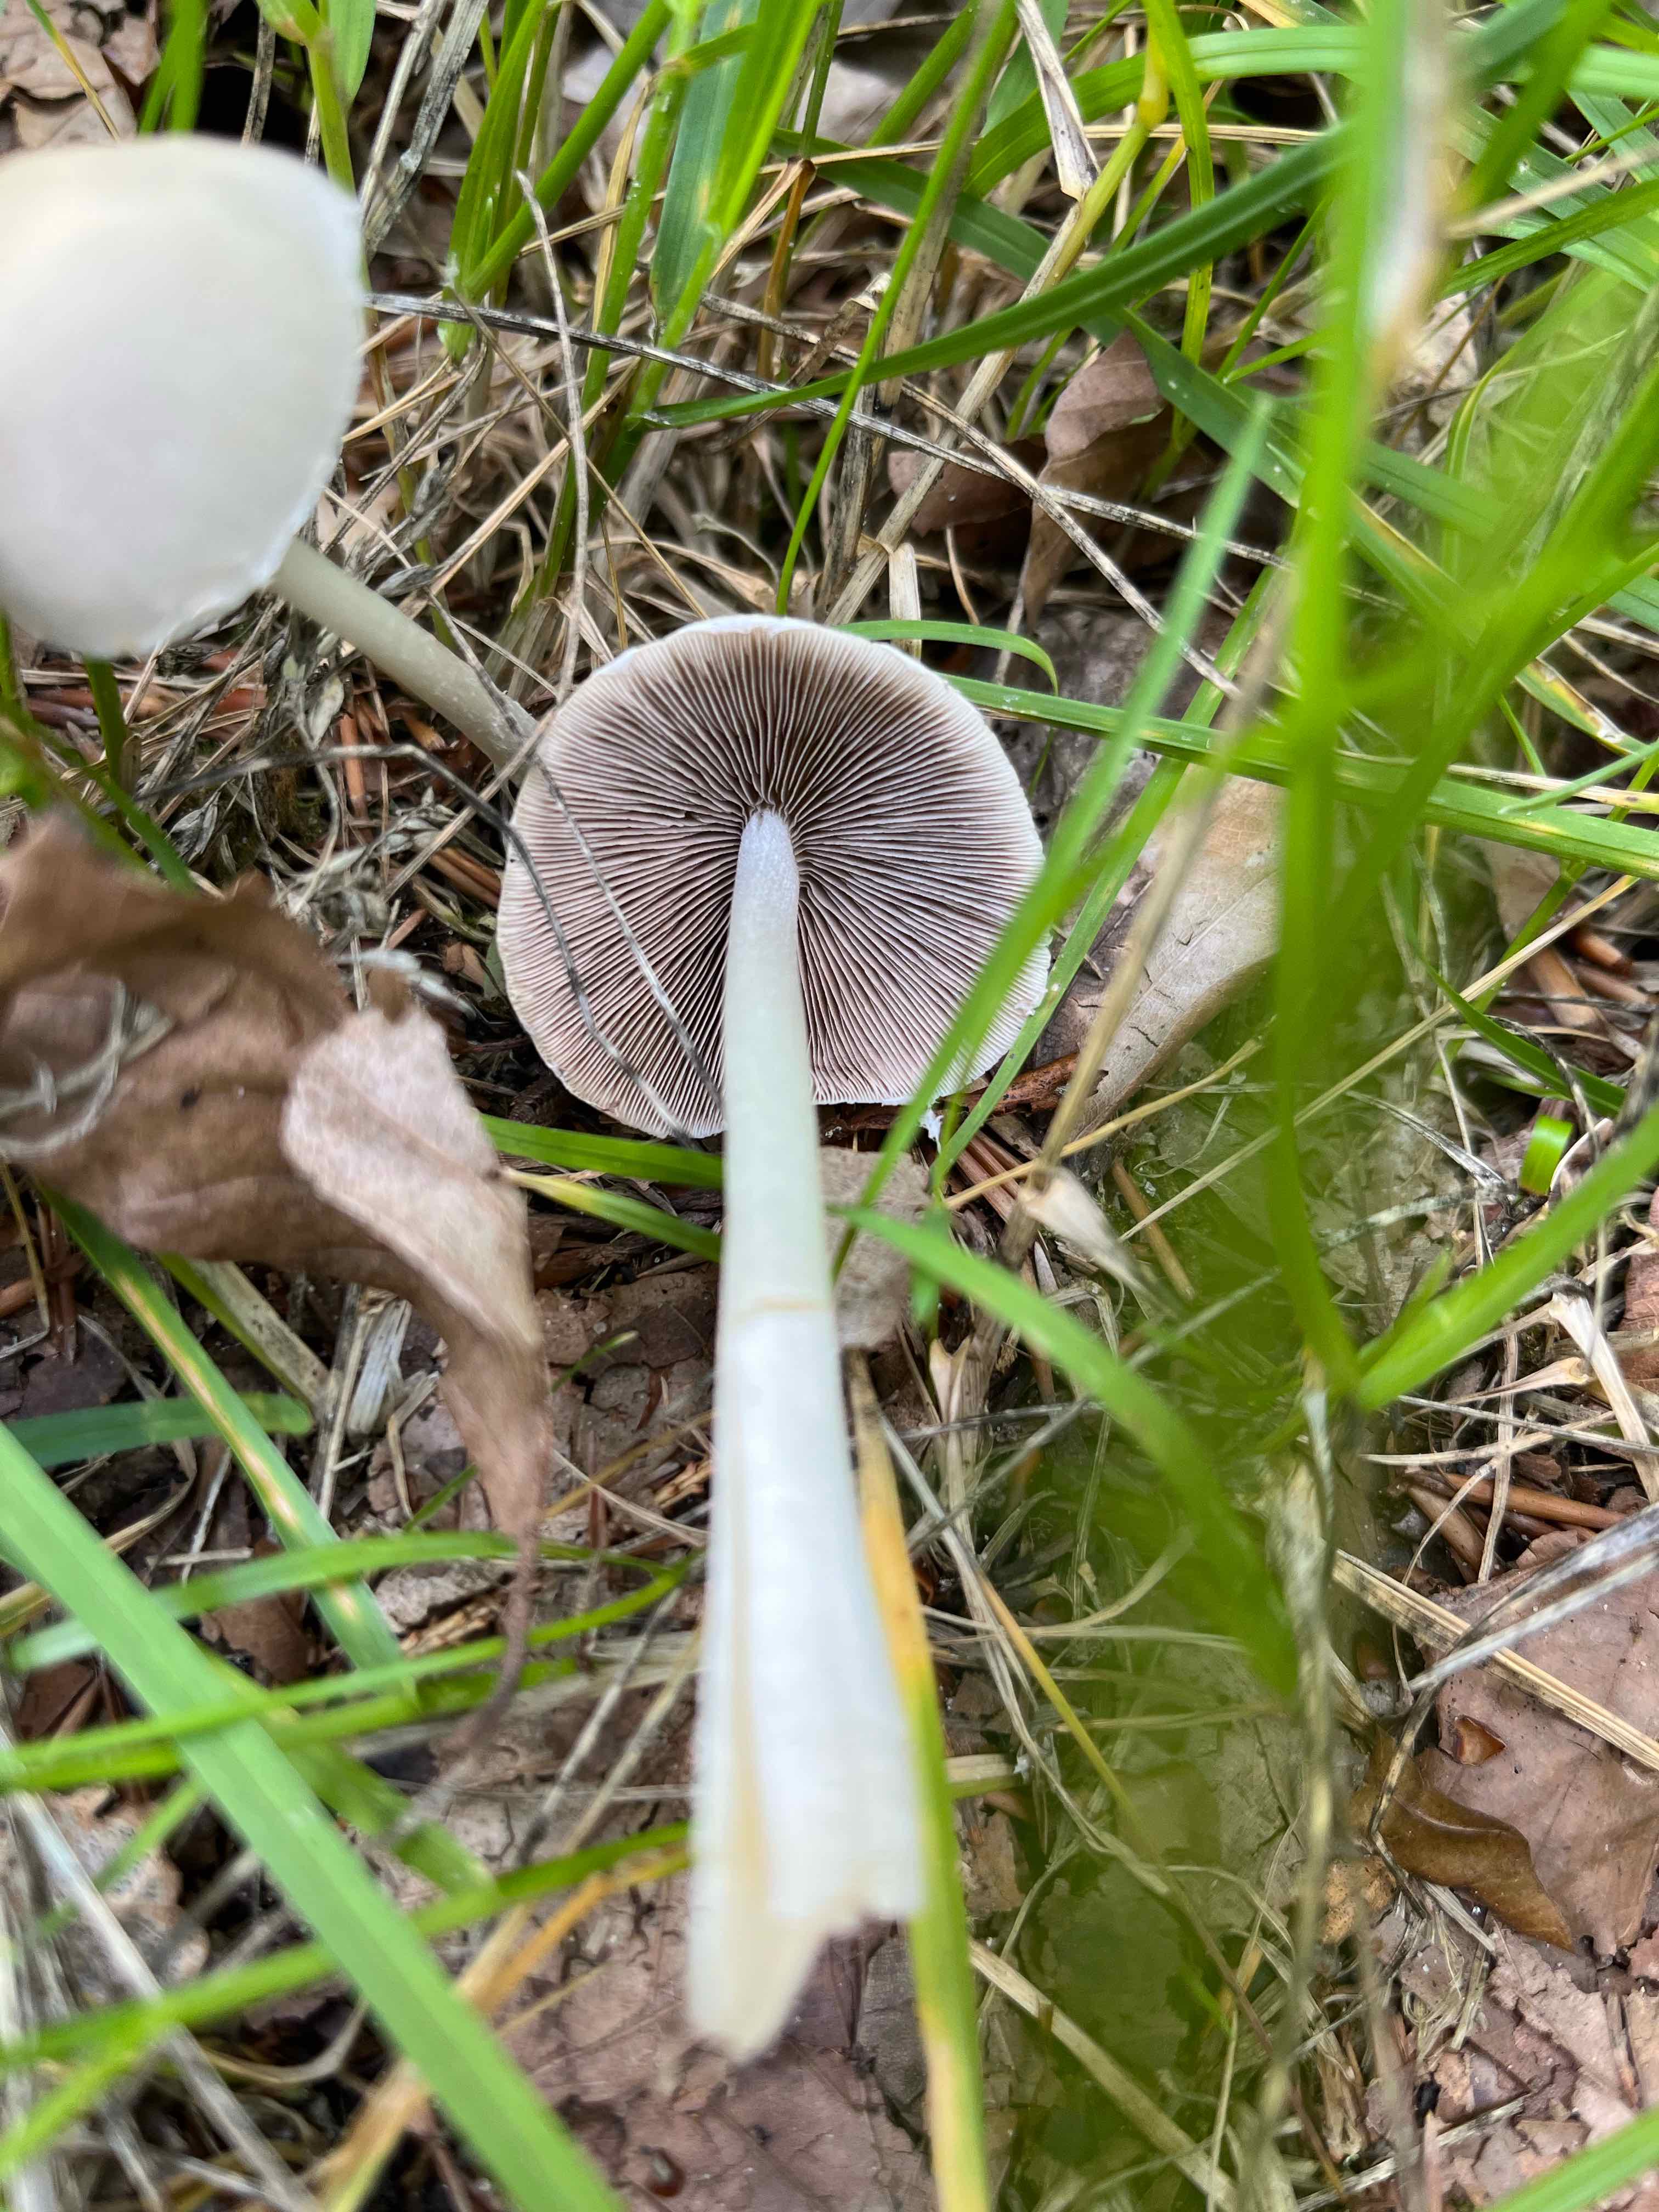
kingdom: Fungi
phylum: Basidiomycota
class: Agaricomycetes
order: Agaricales
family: Psathyrellaceae
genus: Candolleomyces
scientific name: Candolleomyces candolleanus
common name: Candolles mørkhat
